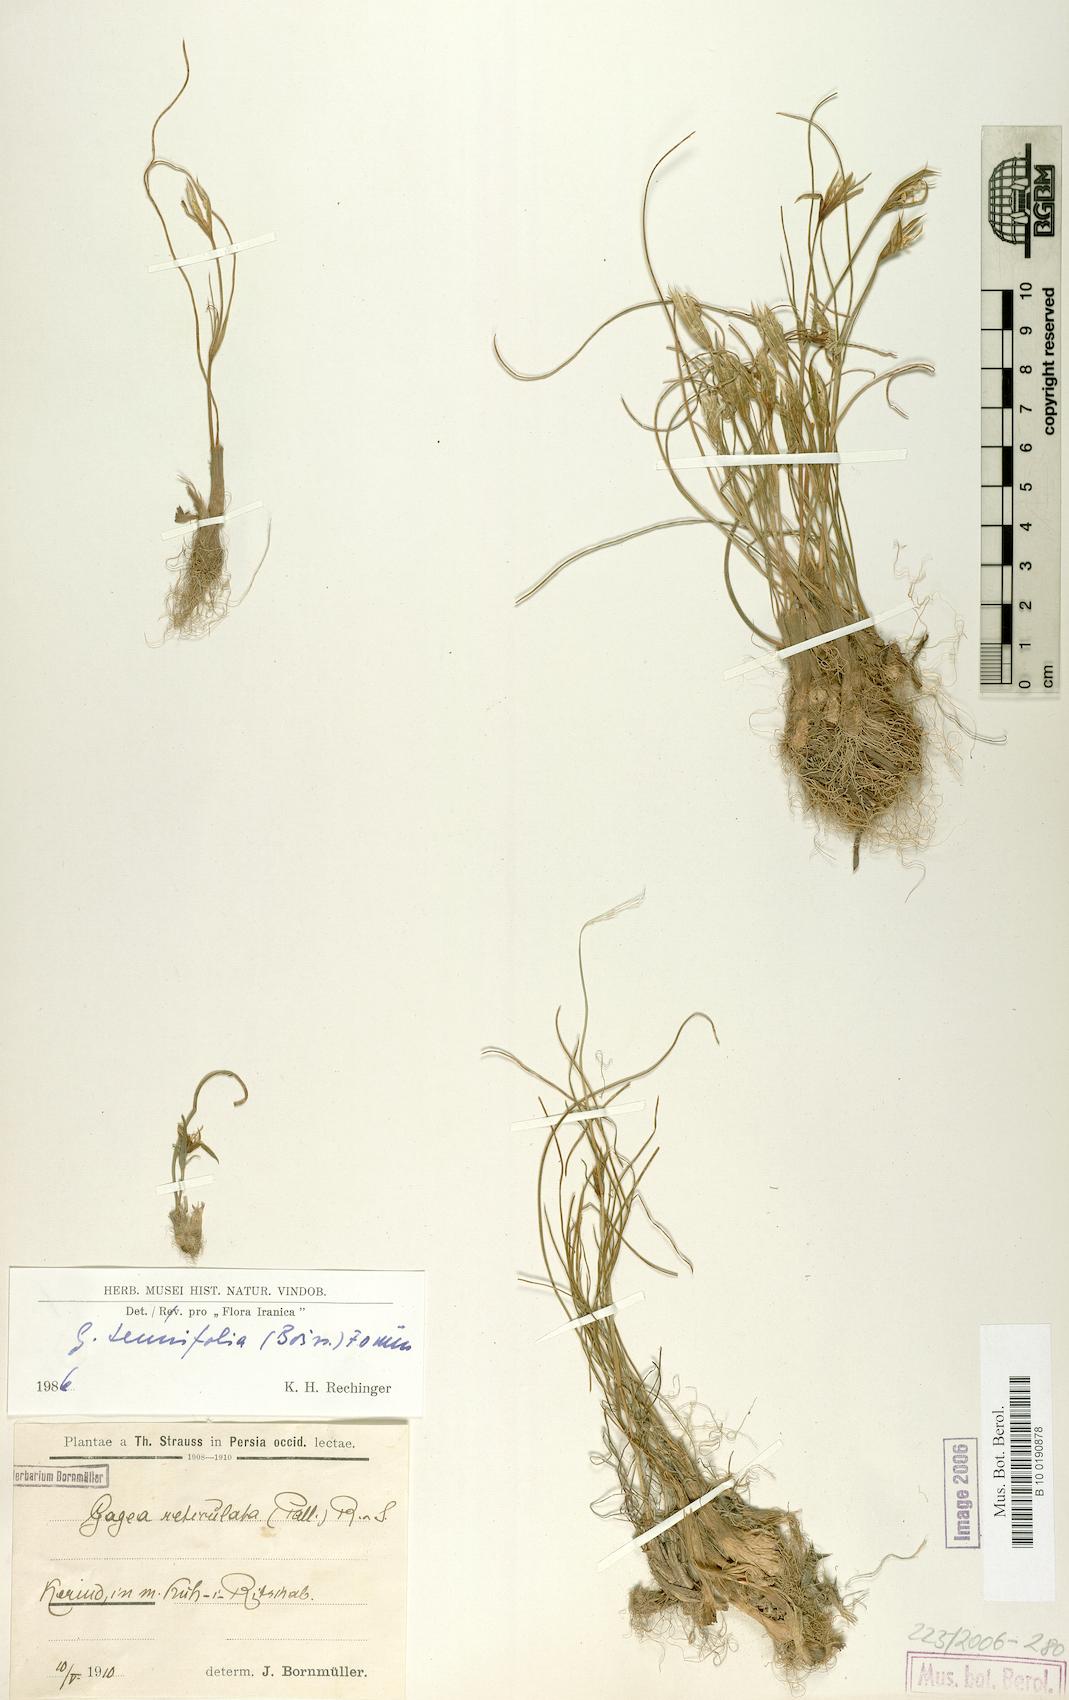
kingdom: Plantae
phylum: Tracheophyta
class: Liliopsida
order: Liliales
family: Liliaceae
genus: Gagea
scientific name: Gagea reticulata
